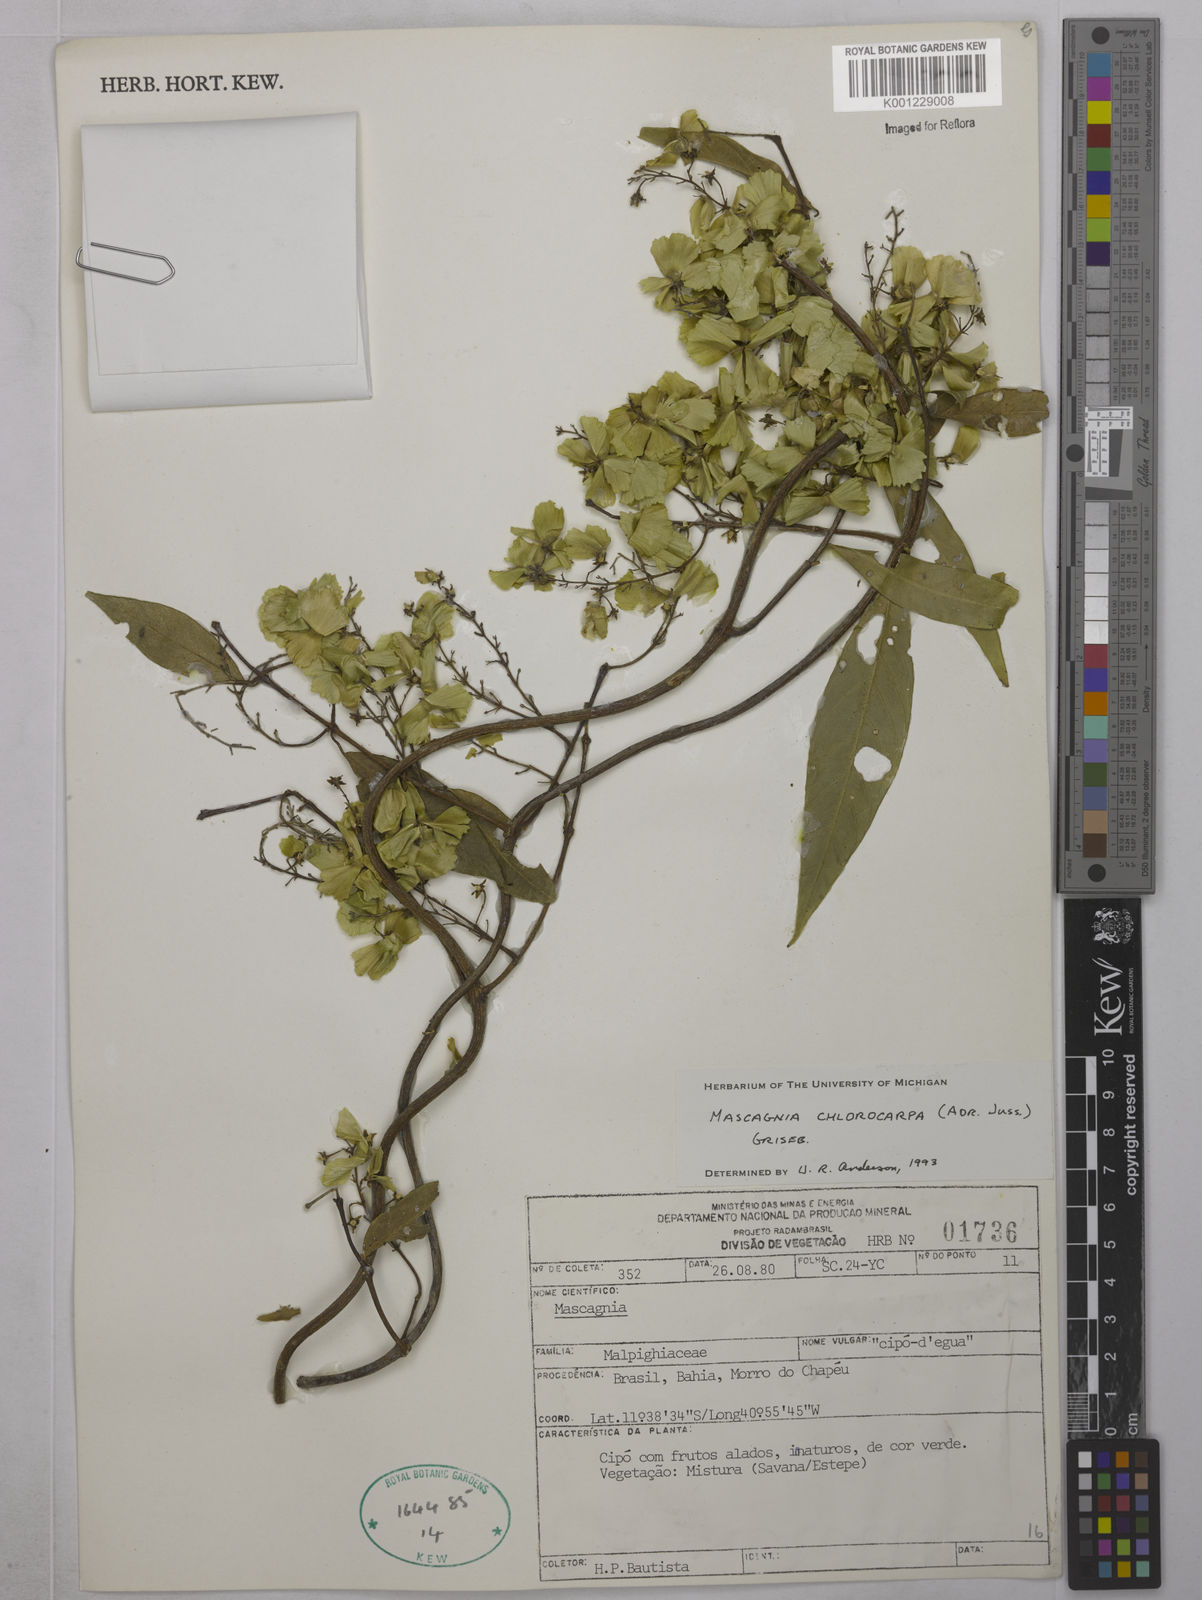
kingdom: Plantae
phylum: Tracheophyta
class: Magnoliopsida
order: Malpighiales
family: Malpighiaceae
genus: Carolus
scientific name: Carolus chlorocarpus
